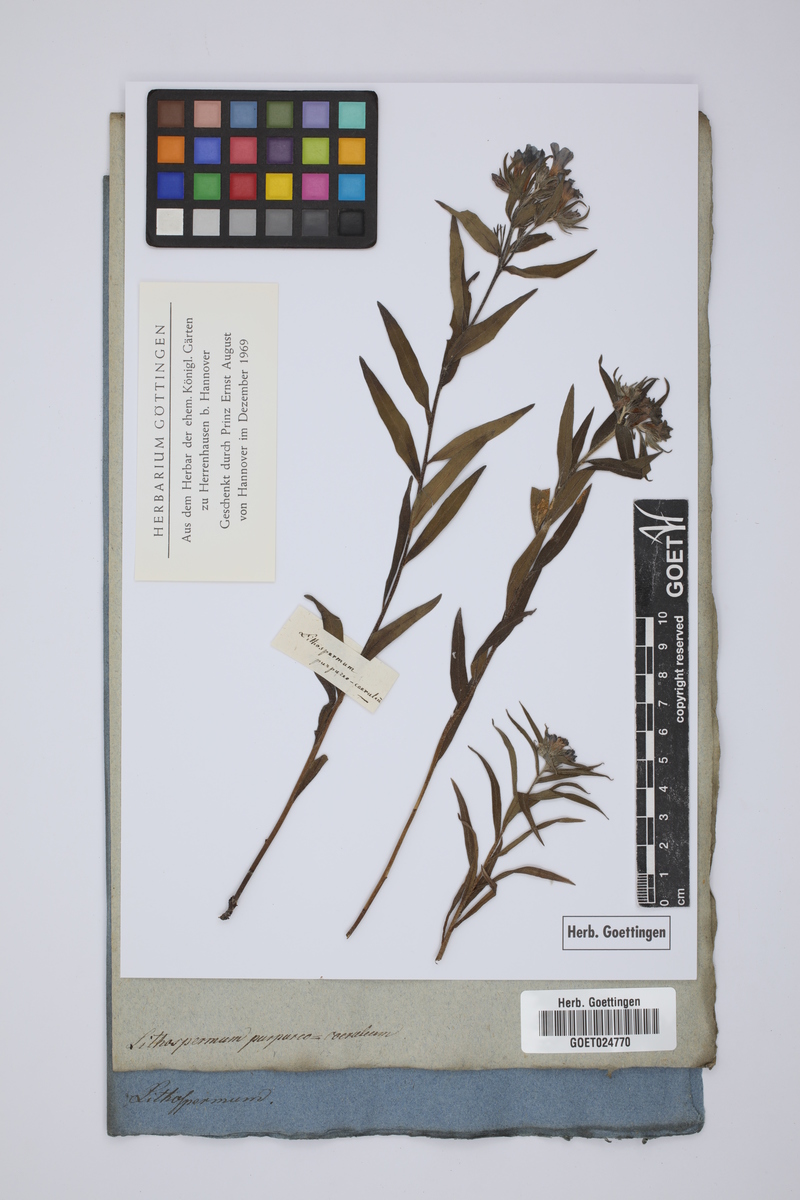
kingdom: Plantae
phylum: Tracheophyta
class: Magnoliopsida
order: Boraginales
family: Boraginaceae
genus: Aegonychon
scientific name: Aegonychon purpurocaeruleum
